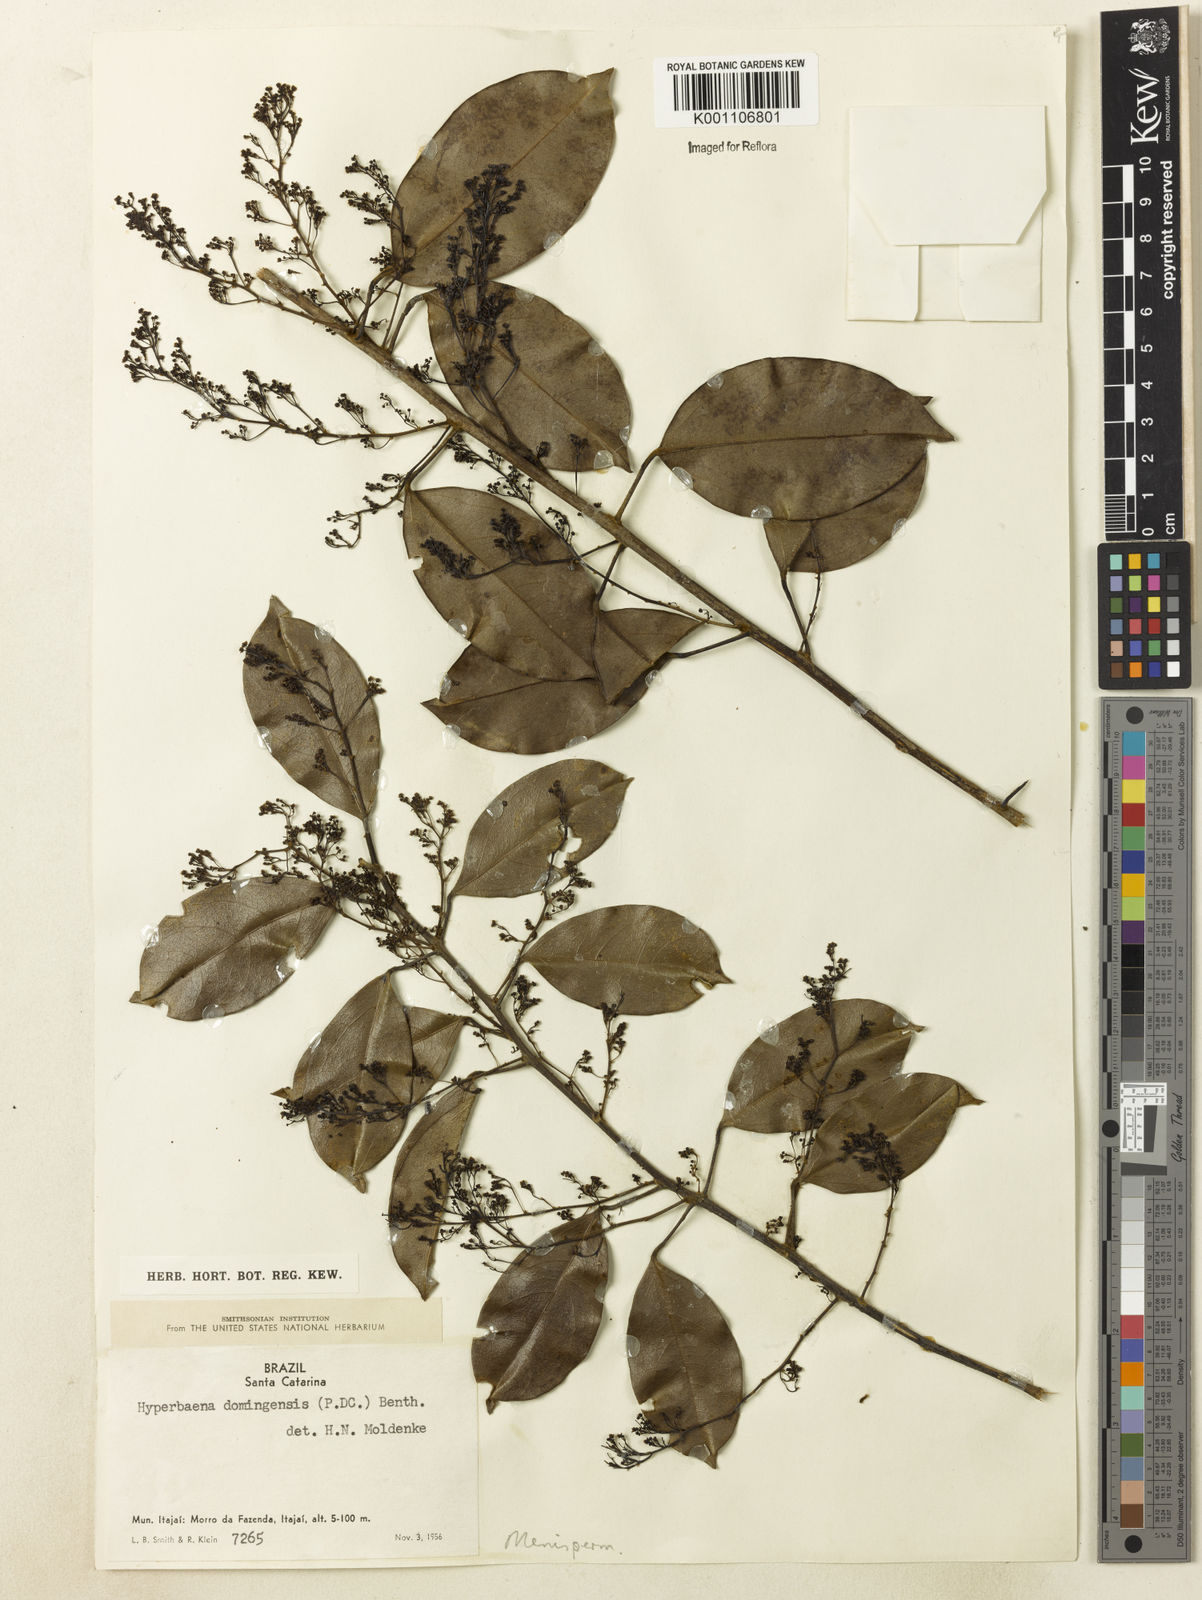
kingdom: Plantae
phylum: Tracheophyta
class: Magnoliopsida
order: Ranunculales
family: Menispermaceae
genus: Hyperbaena
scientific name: Hyperbaena domingensis
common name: Forest snakevine
